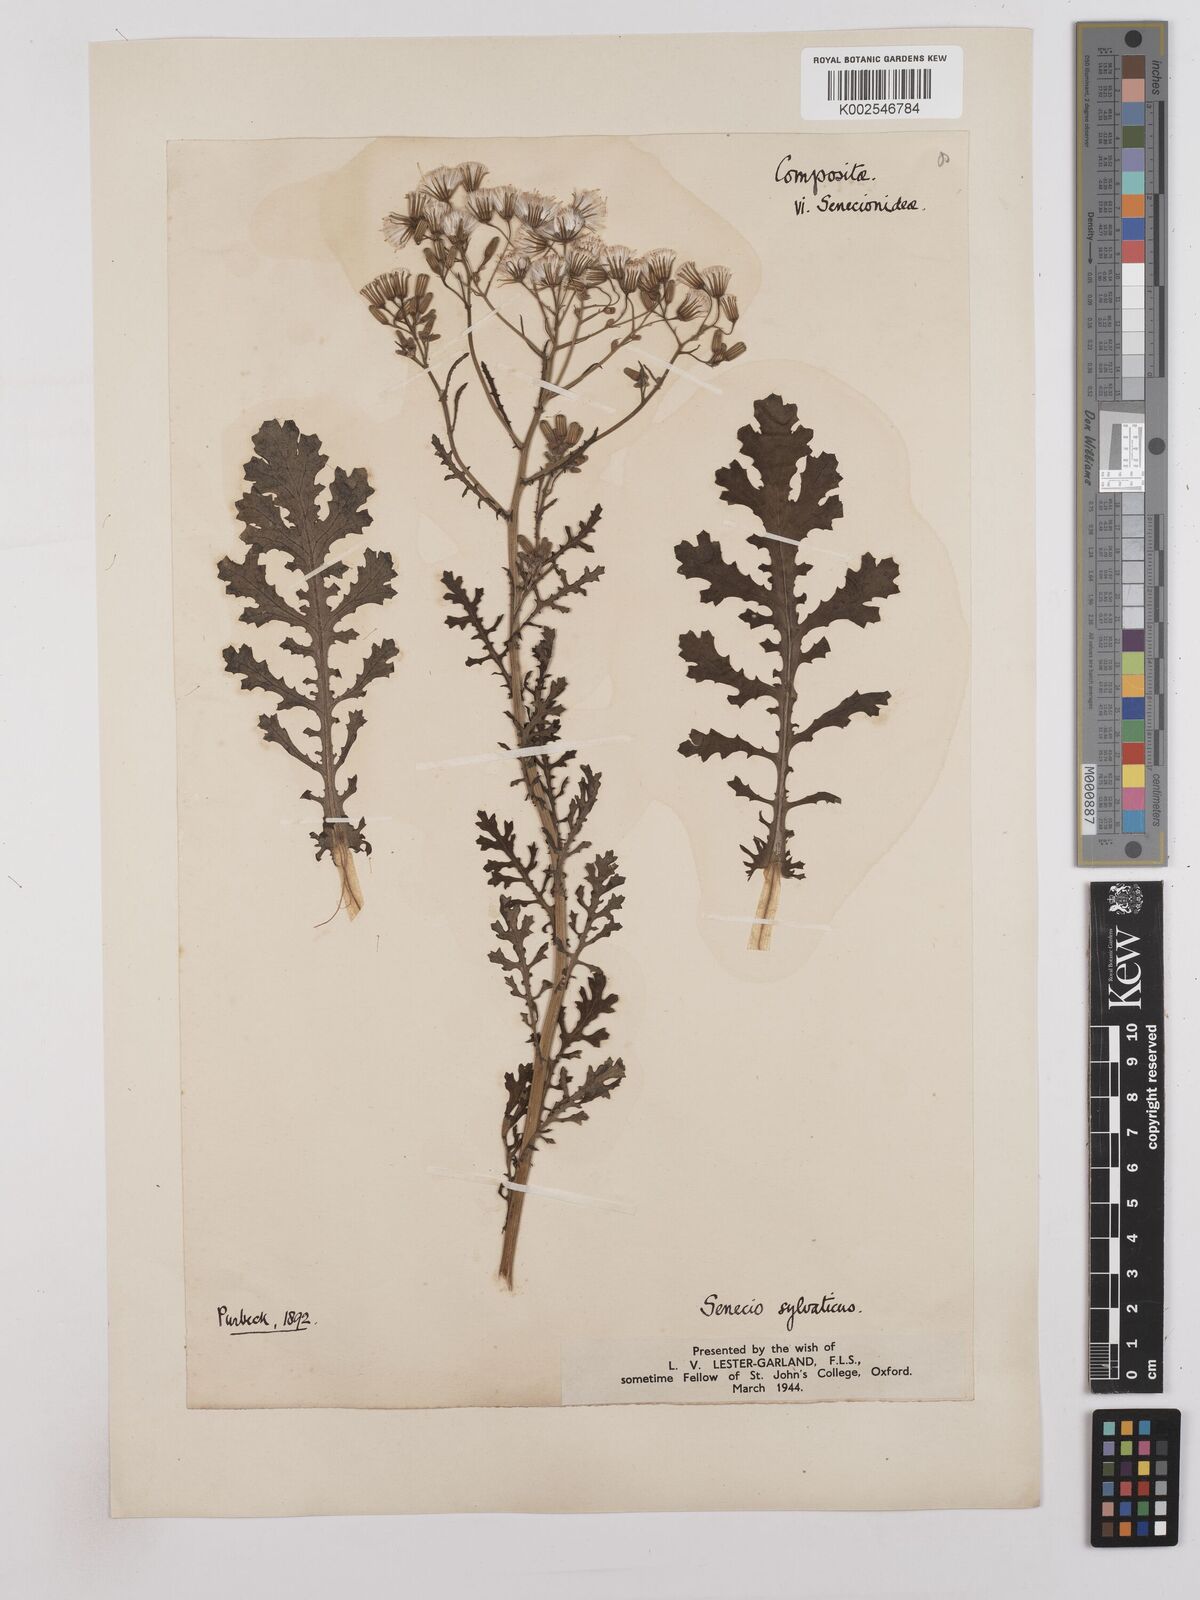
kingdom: Plantae
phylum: Tracheophyta
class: Magnoliopsida
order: Asterales
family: Asteraceae
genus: Senecio
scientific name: Senecio sylvaticus
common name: Woodland ragwort
